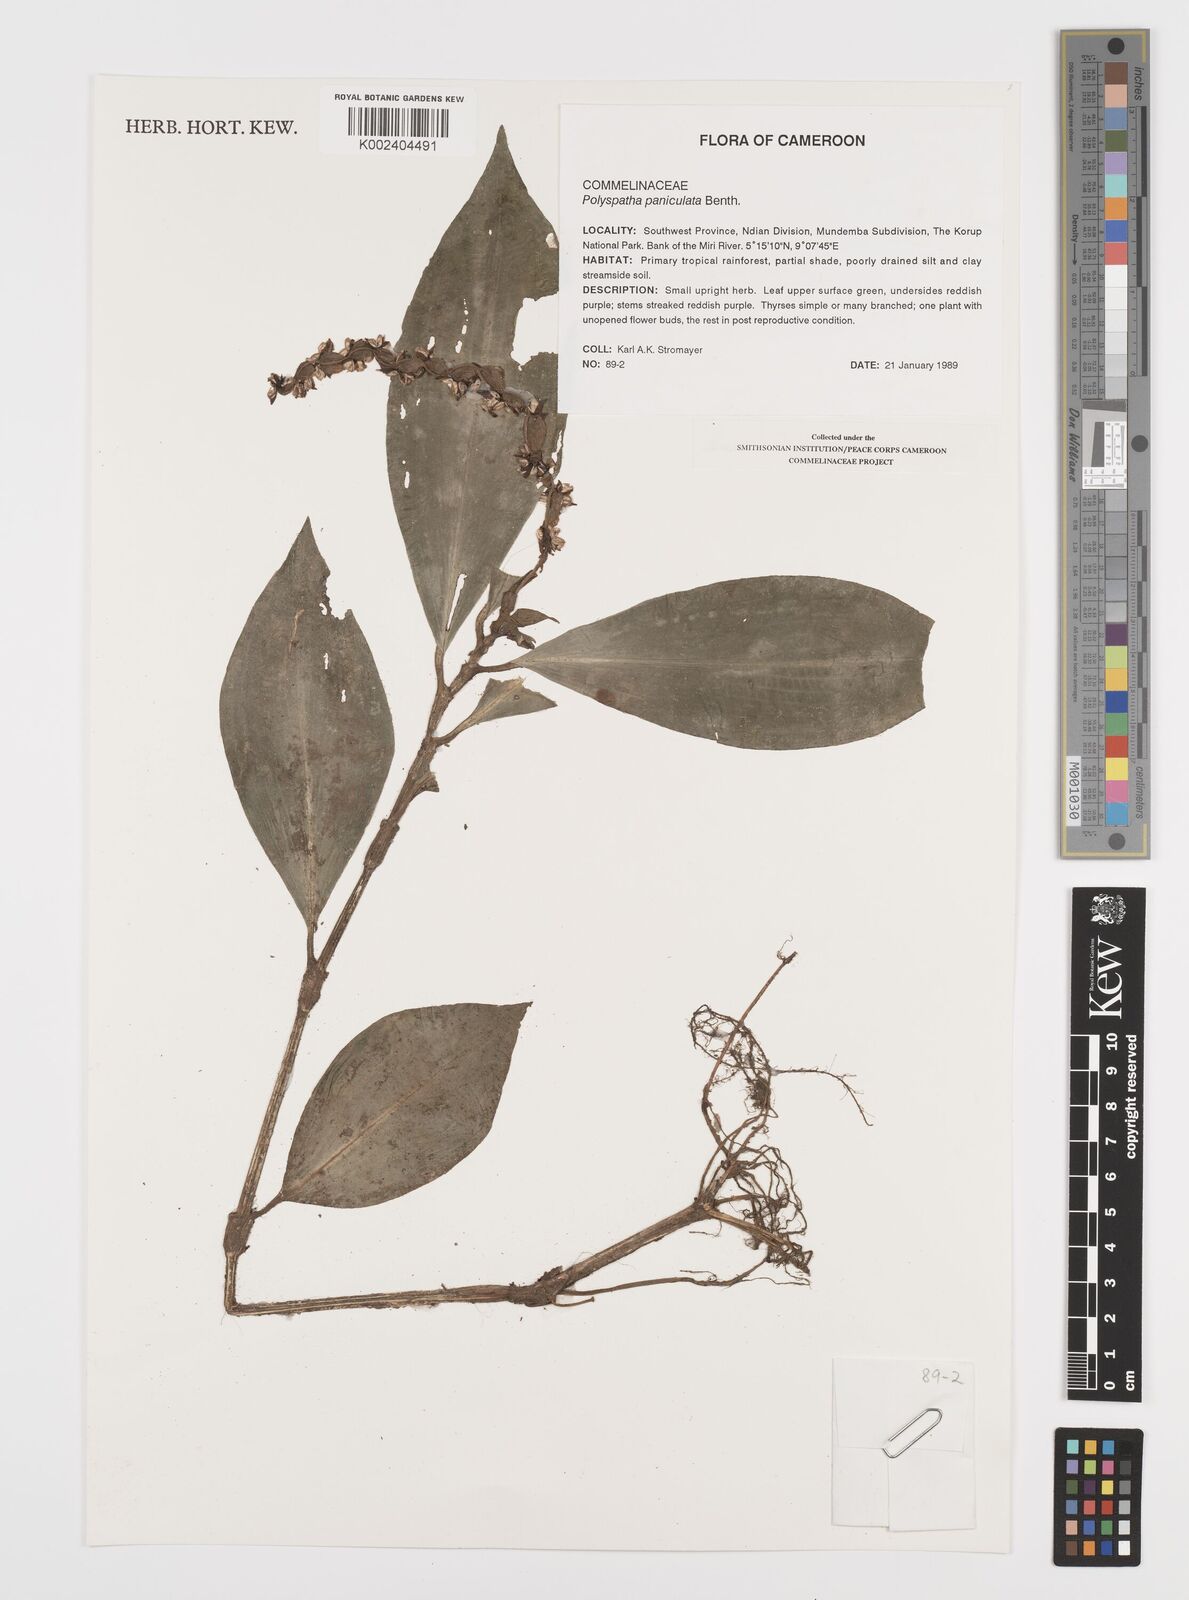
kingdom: Plantae
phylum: Tracheophyta
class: Liliopsida
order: Commelinales
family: Commelinaceae
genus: Polyspatha
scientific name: Polyspatha paniculata
